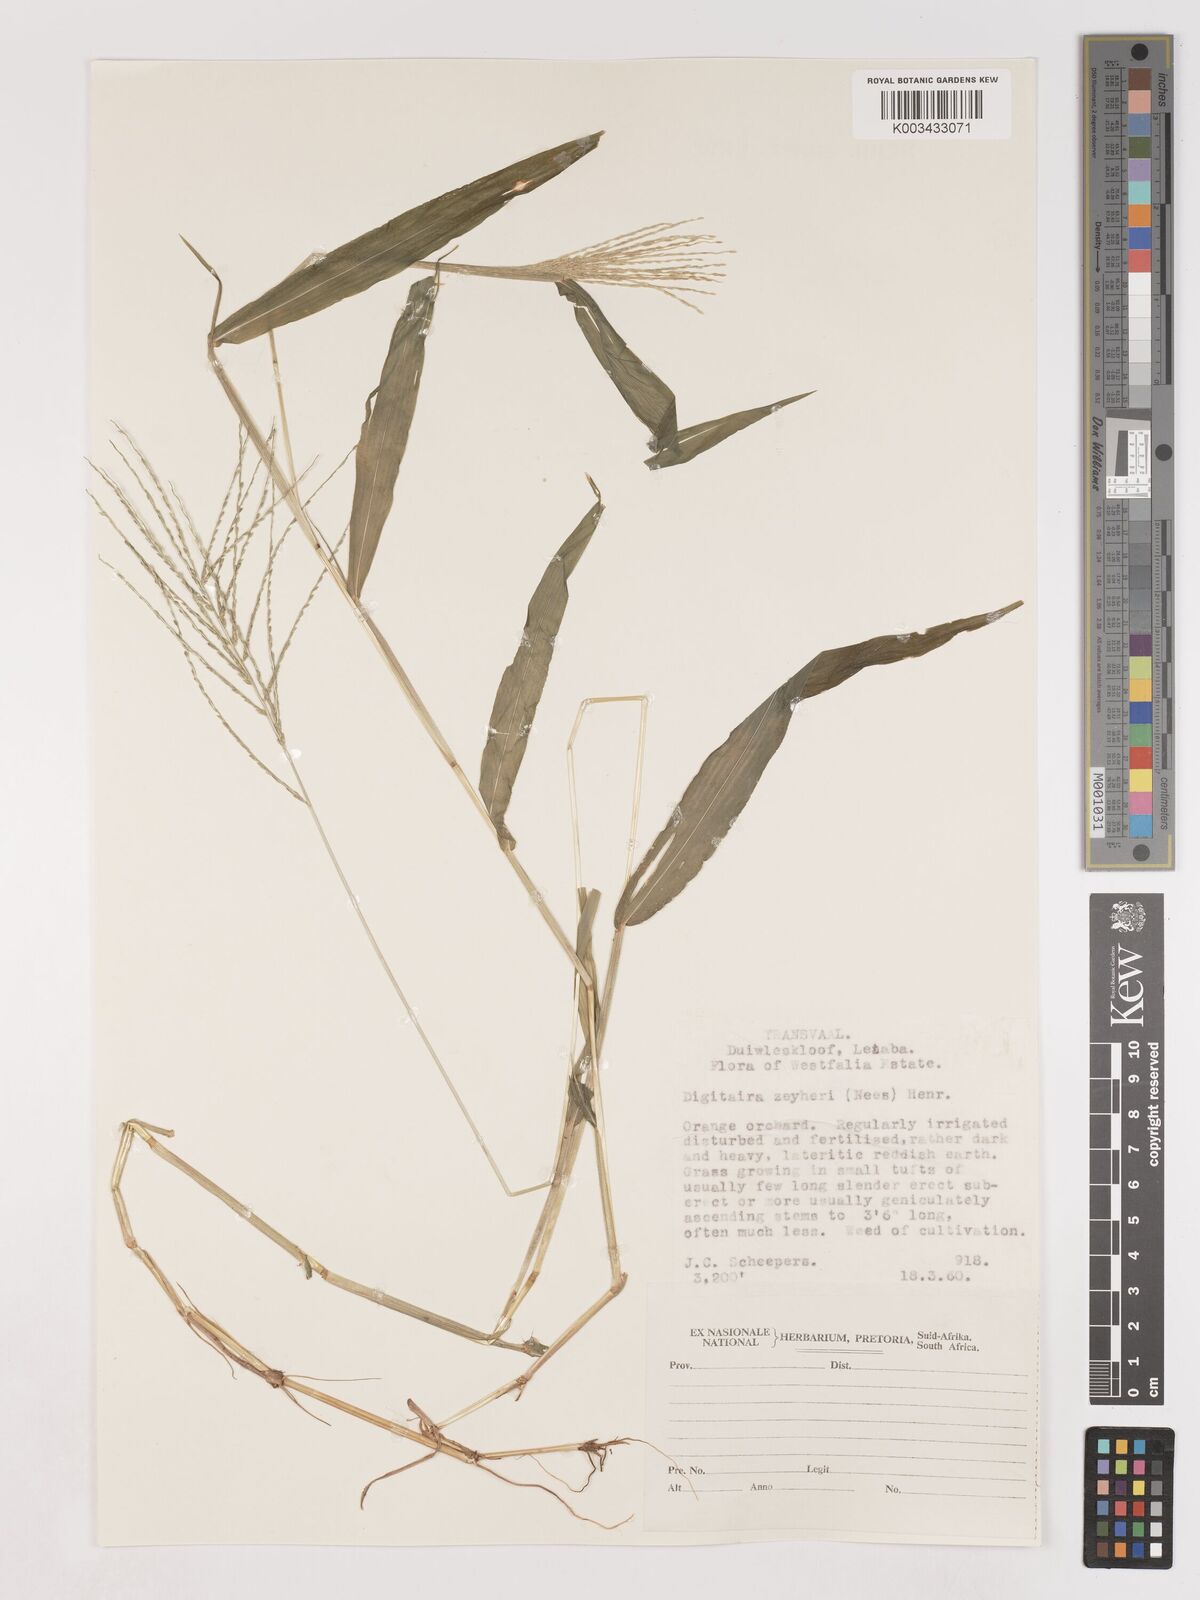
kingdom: Plantae
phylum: Tracheophyta
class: Liliopsida
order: Poales
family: Poaceae
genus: Digitaria
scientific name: Digitaria velutina
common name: Long-plume finger grass
